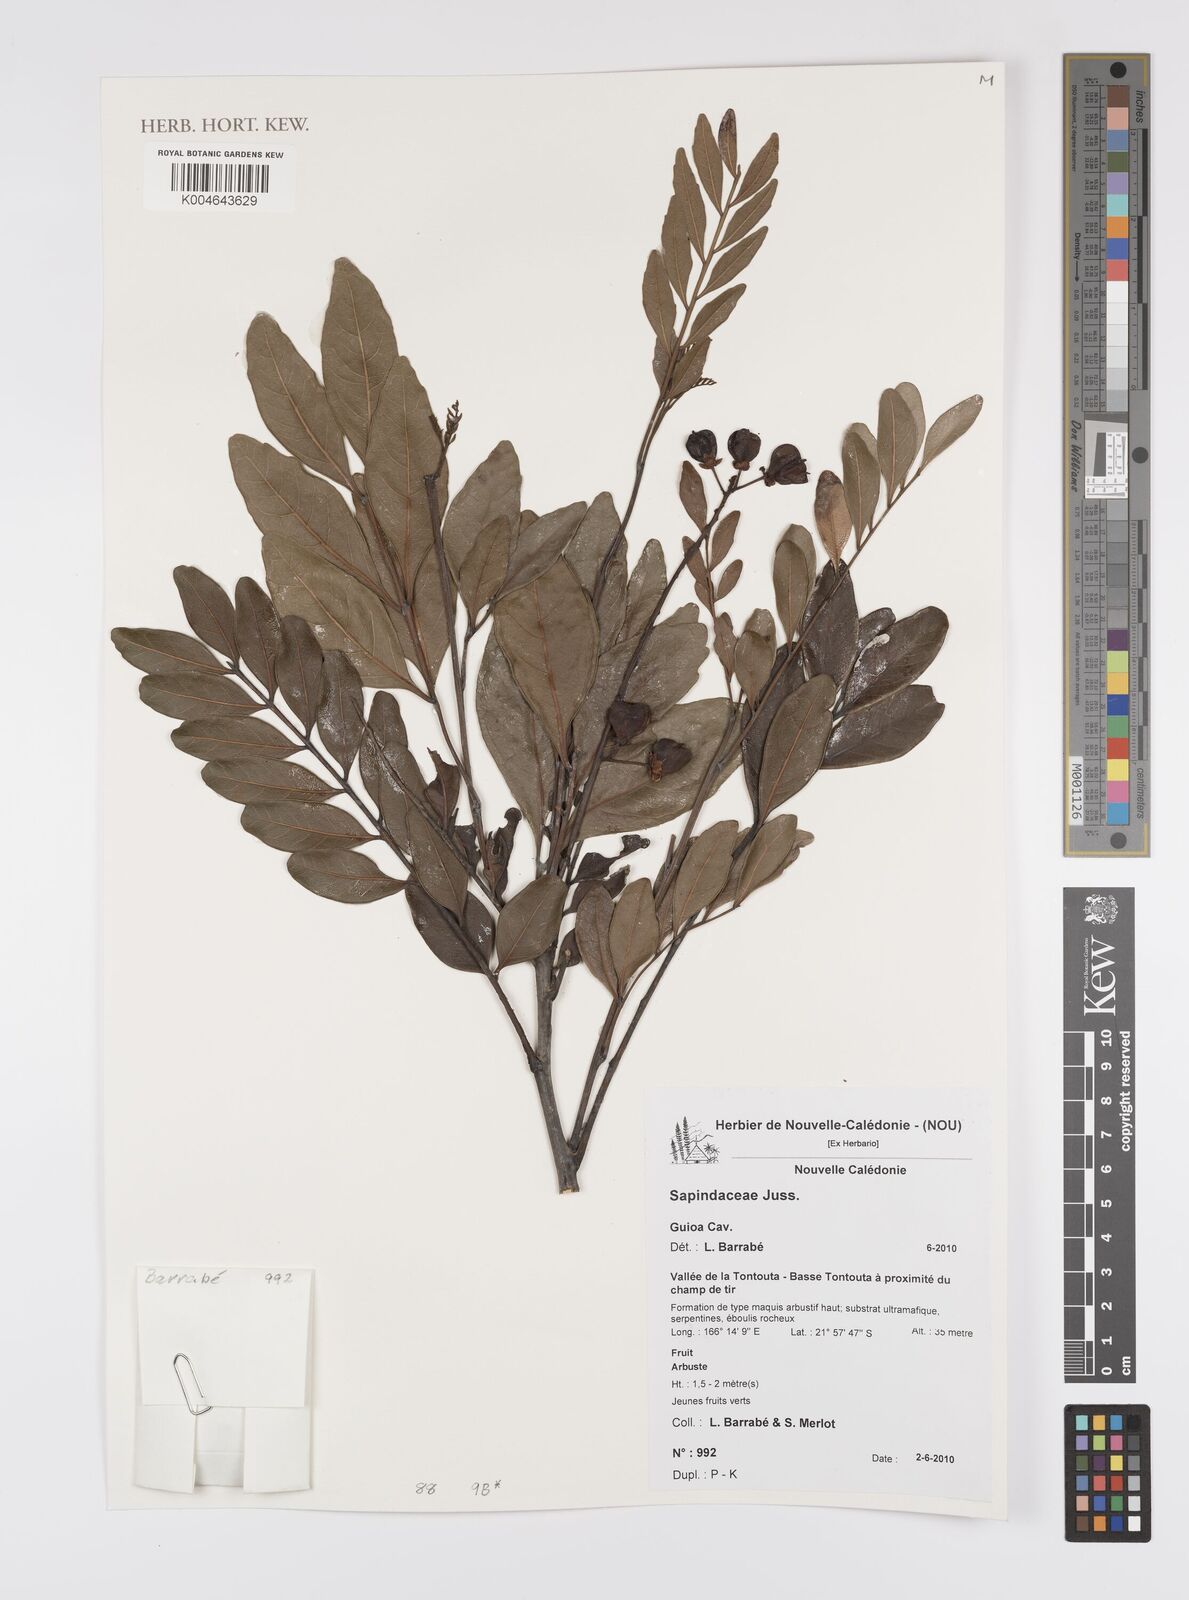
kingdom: Plantae
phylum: Tracheophyta
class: Magnoliopsida
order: Sapindales
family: Sapindaceae
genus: Guioa
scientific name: Guioa
